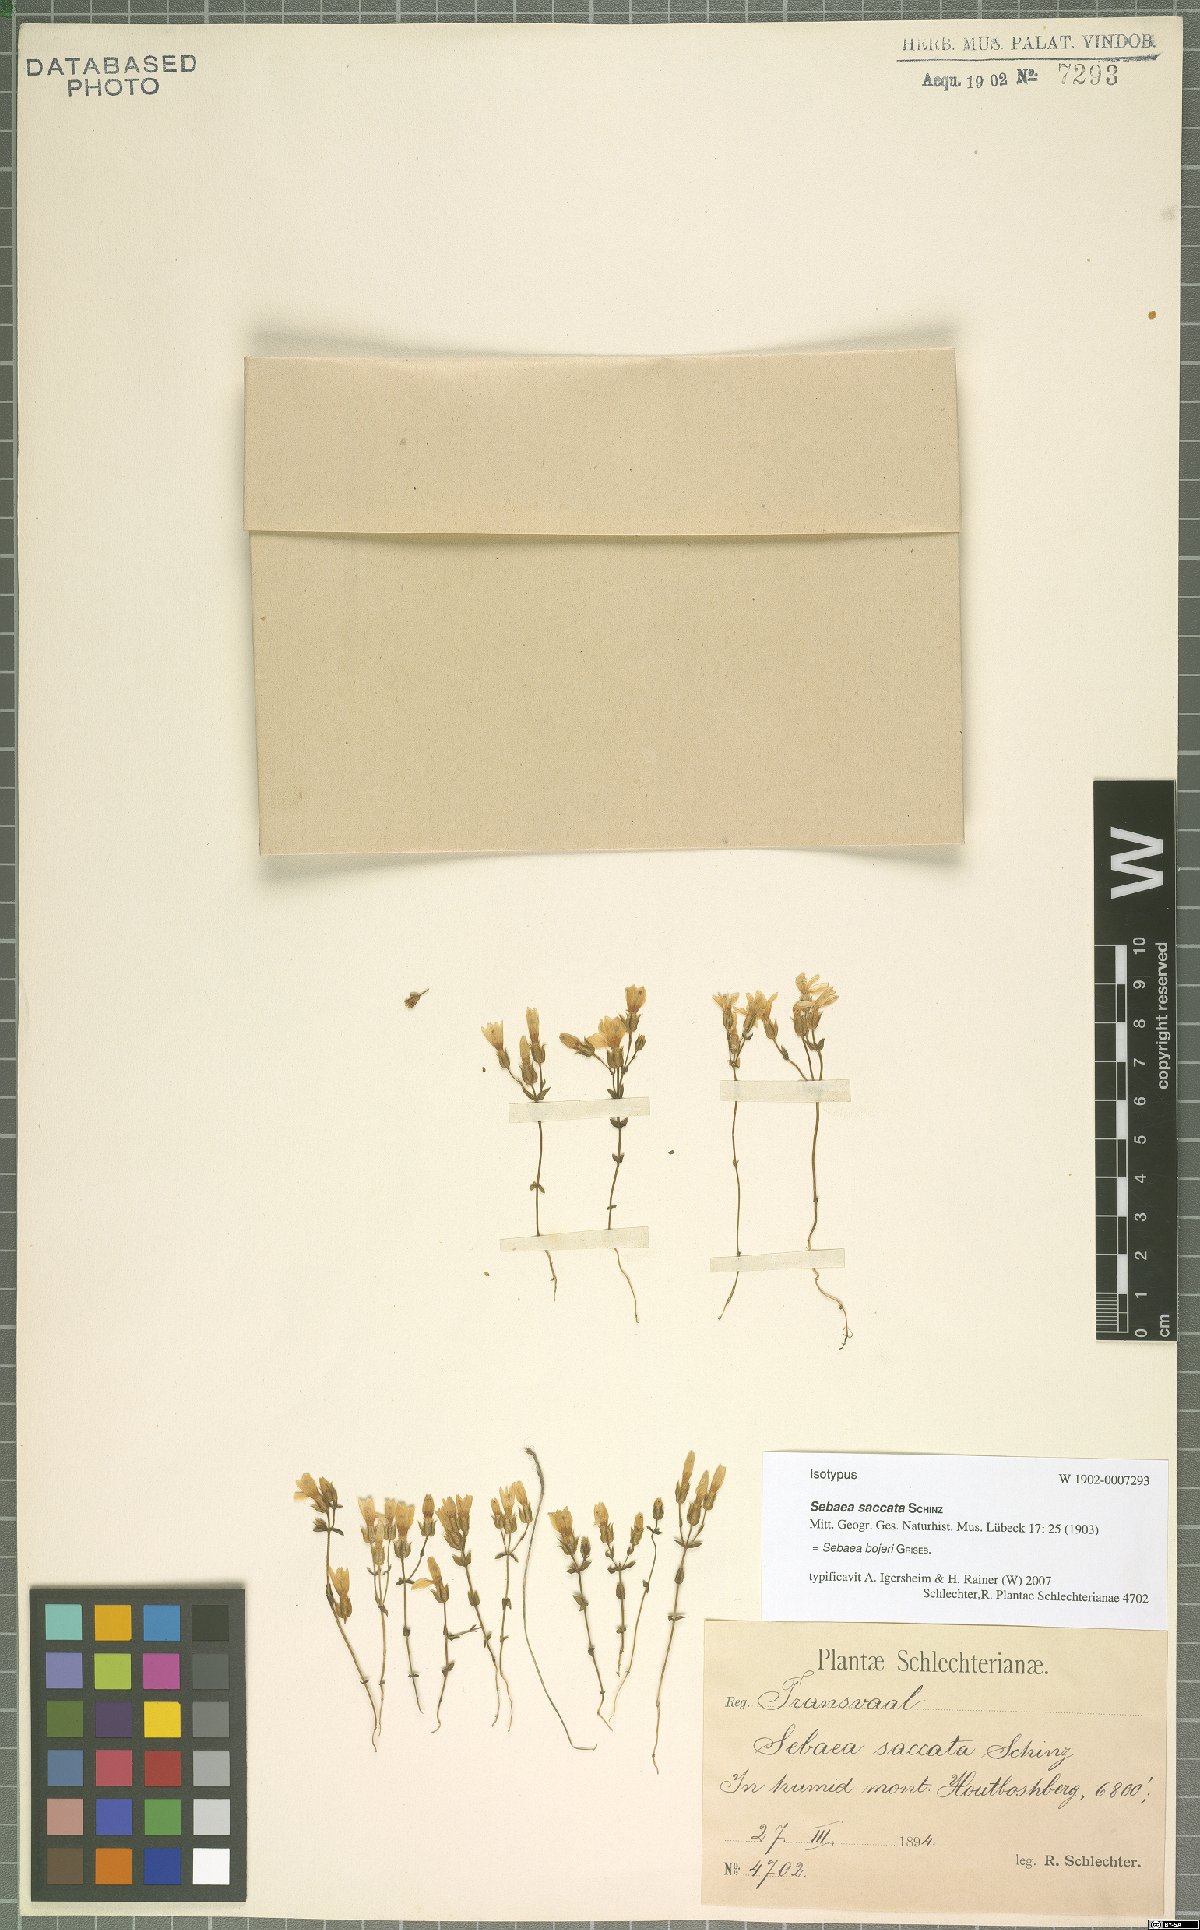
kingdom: Plantae
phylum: Tracheophyta
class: Magnoliopsida
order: Gentianales
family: Gentianaceae
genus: Sebaea
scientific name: Sebaea bojeri
